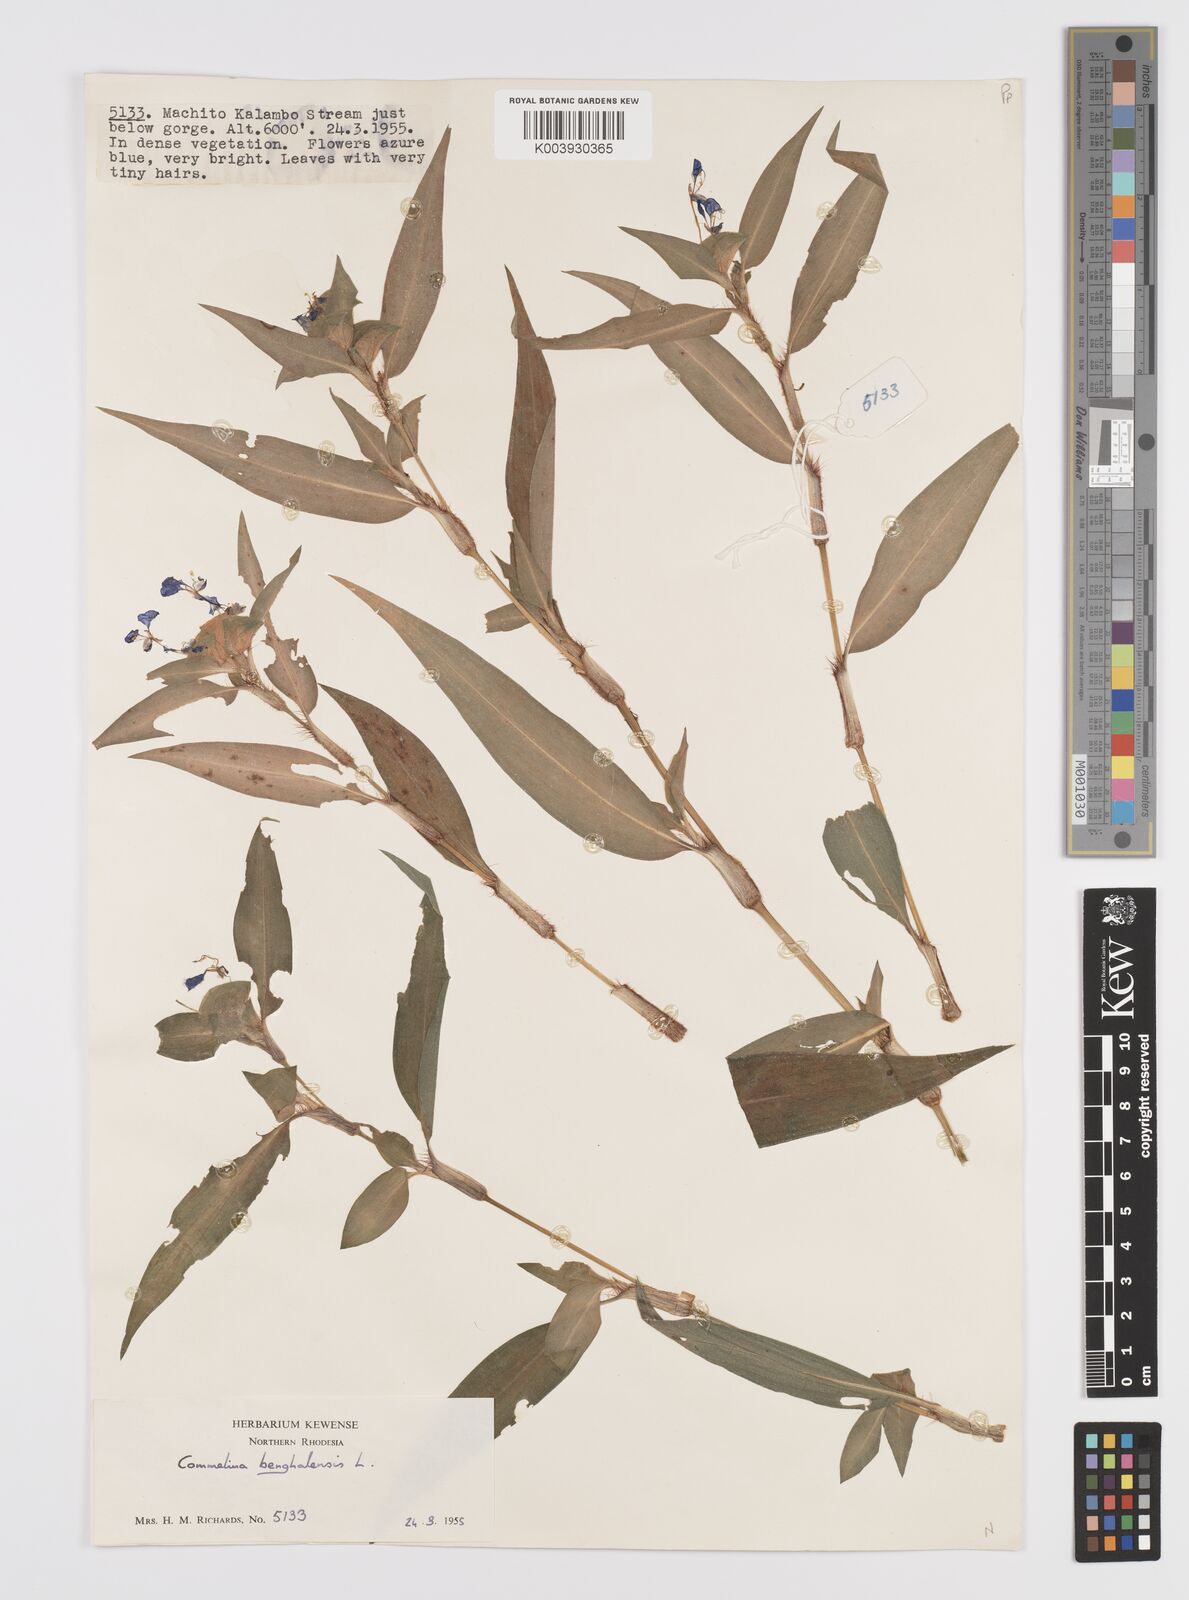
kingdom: Plantae
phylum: Tracheophyta
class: Liliopsida
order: Commelinales
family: Commelinaceae
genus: Commelina
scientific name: Commelina benghalensis
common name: Jio
